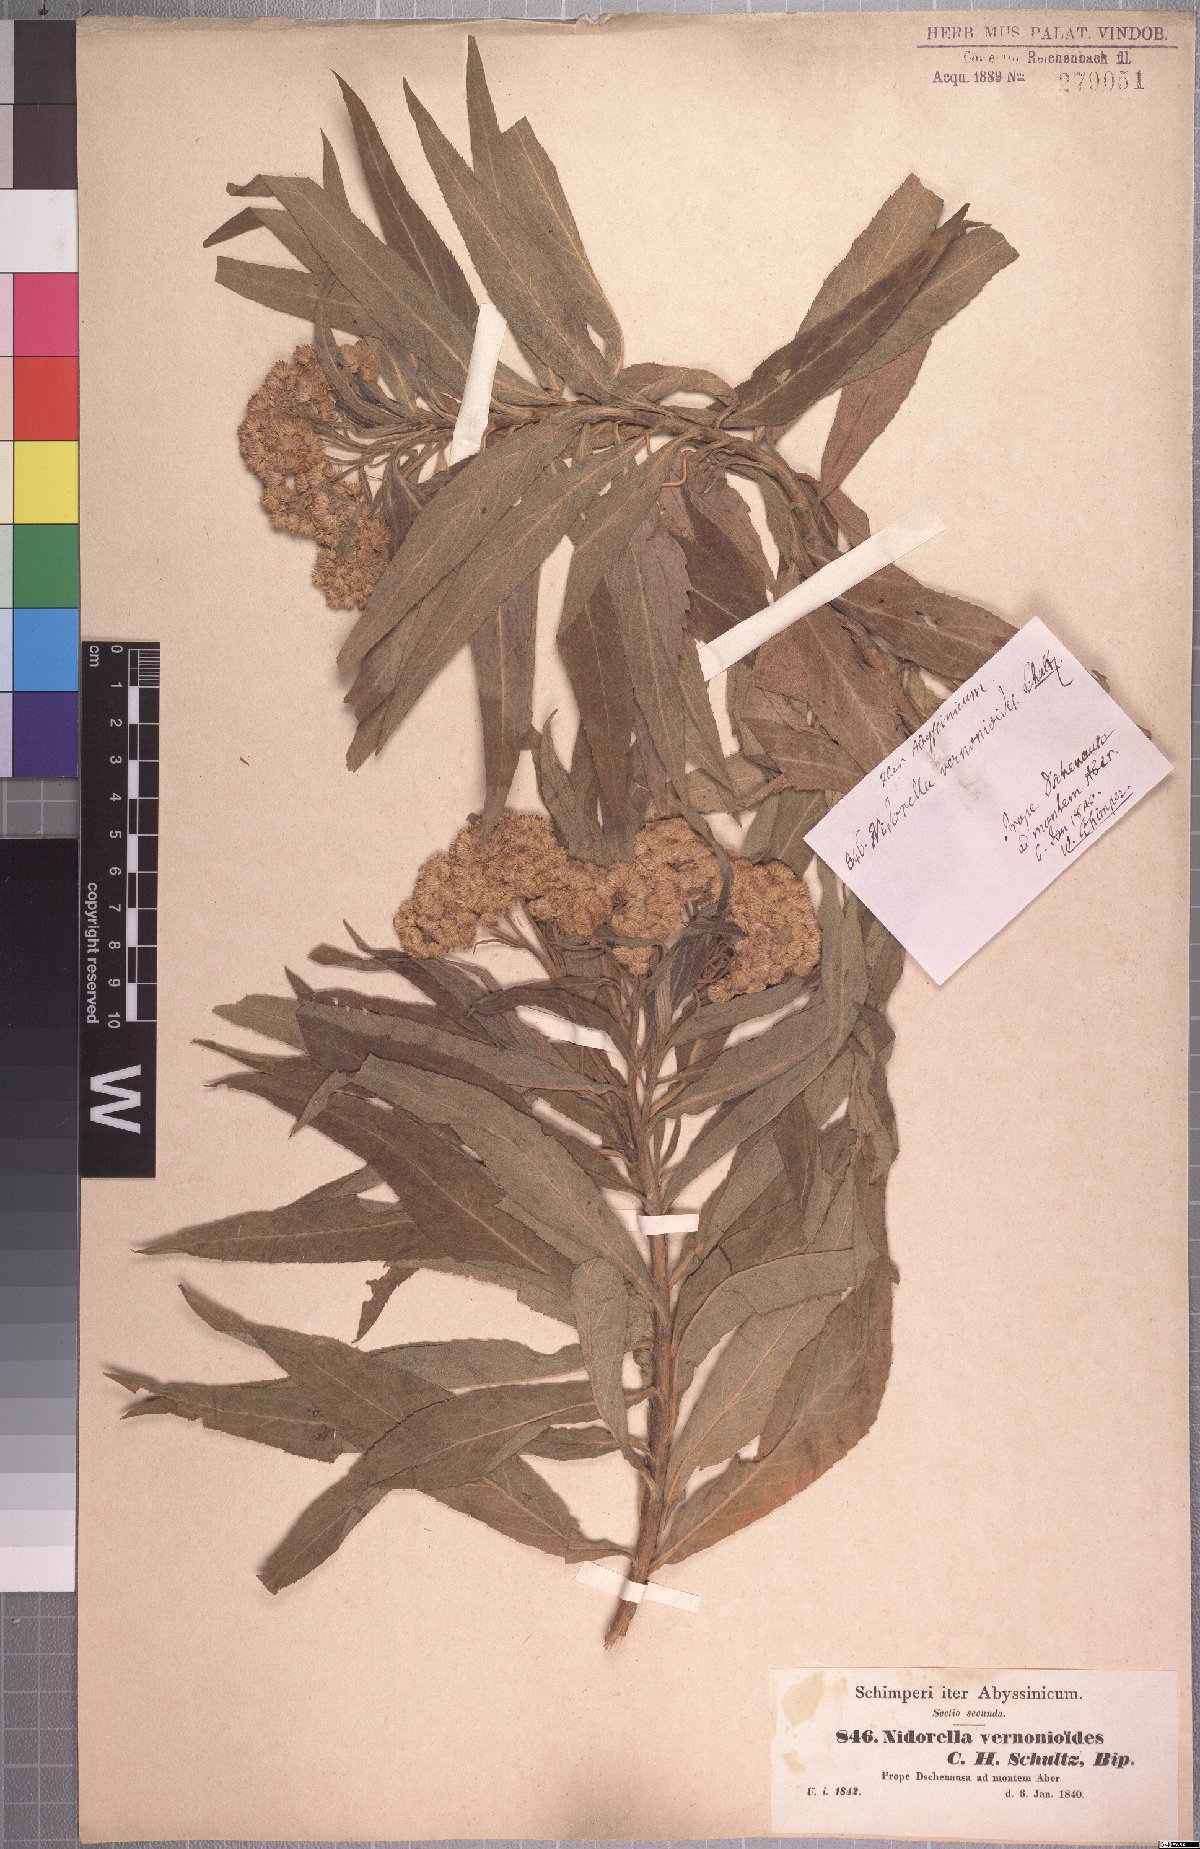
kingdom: Plantae
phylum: Tracheophyta
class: Magnoliopsida
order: Asterales
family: Asteraceae
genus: Nidorella
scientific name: Nidorella vernonioides
